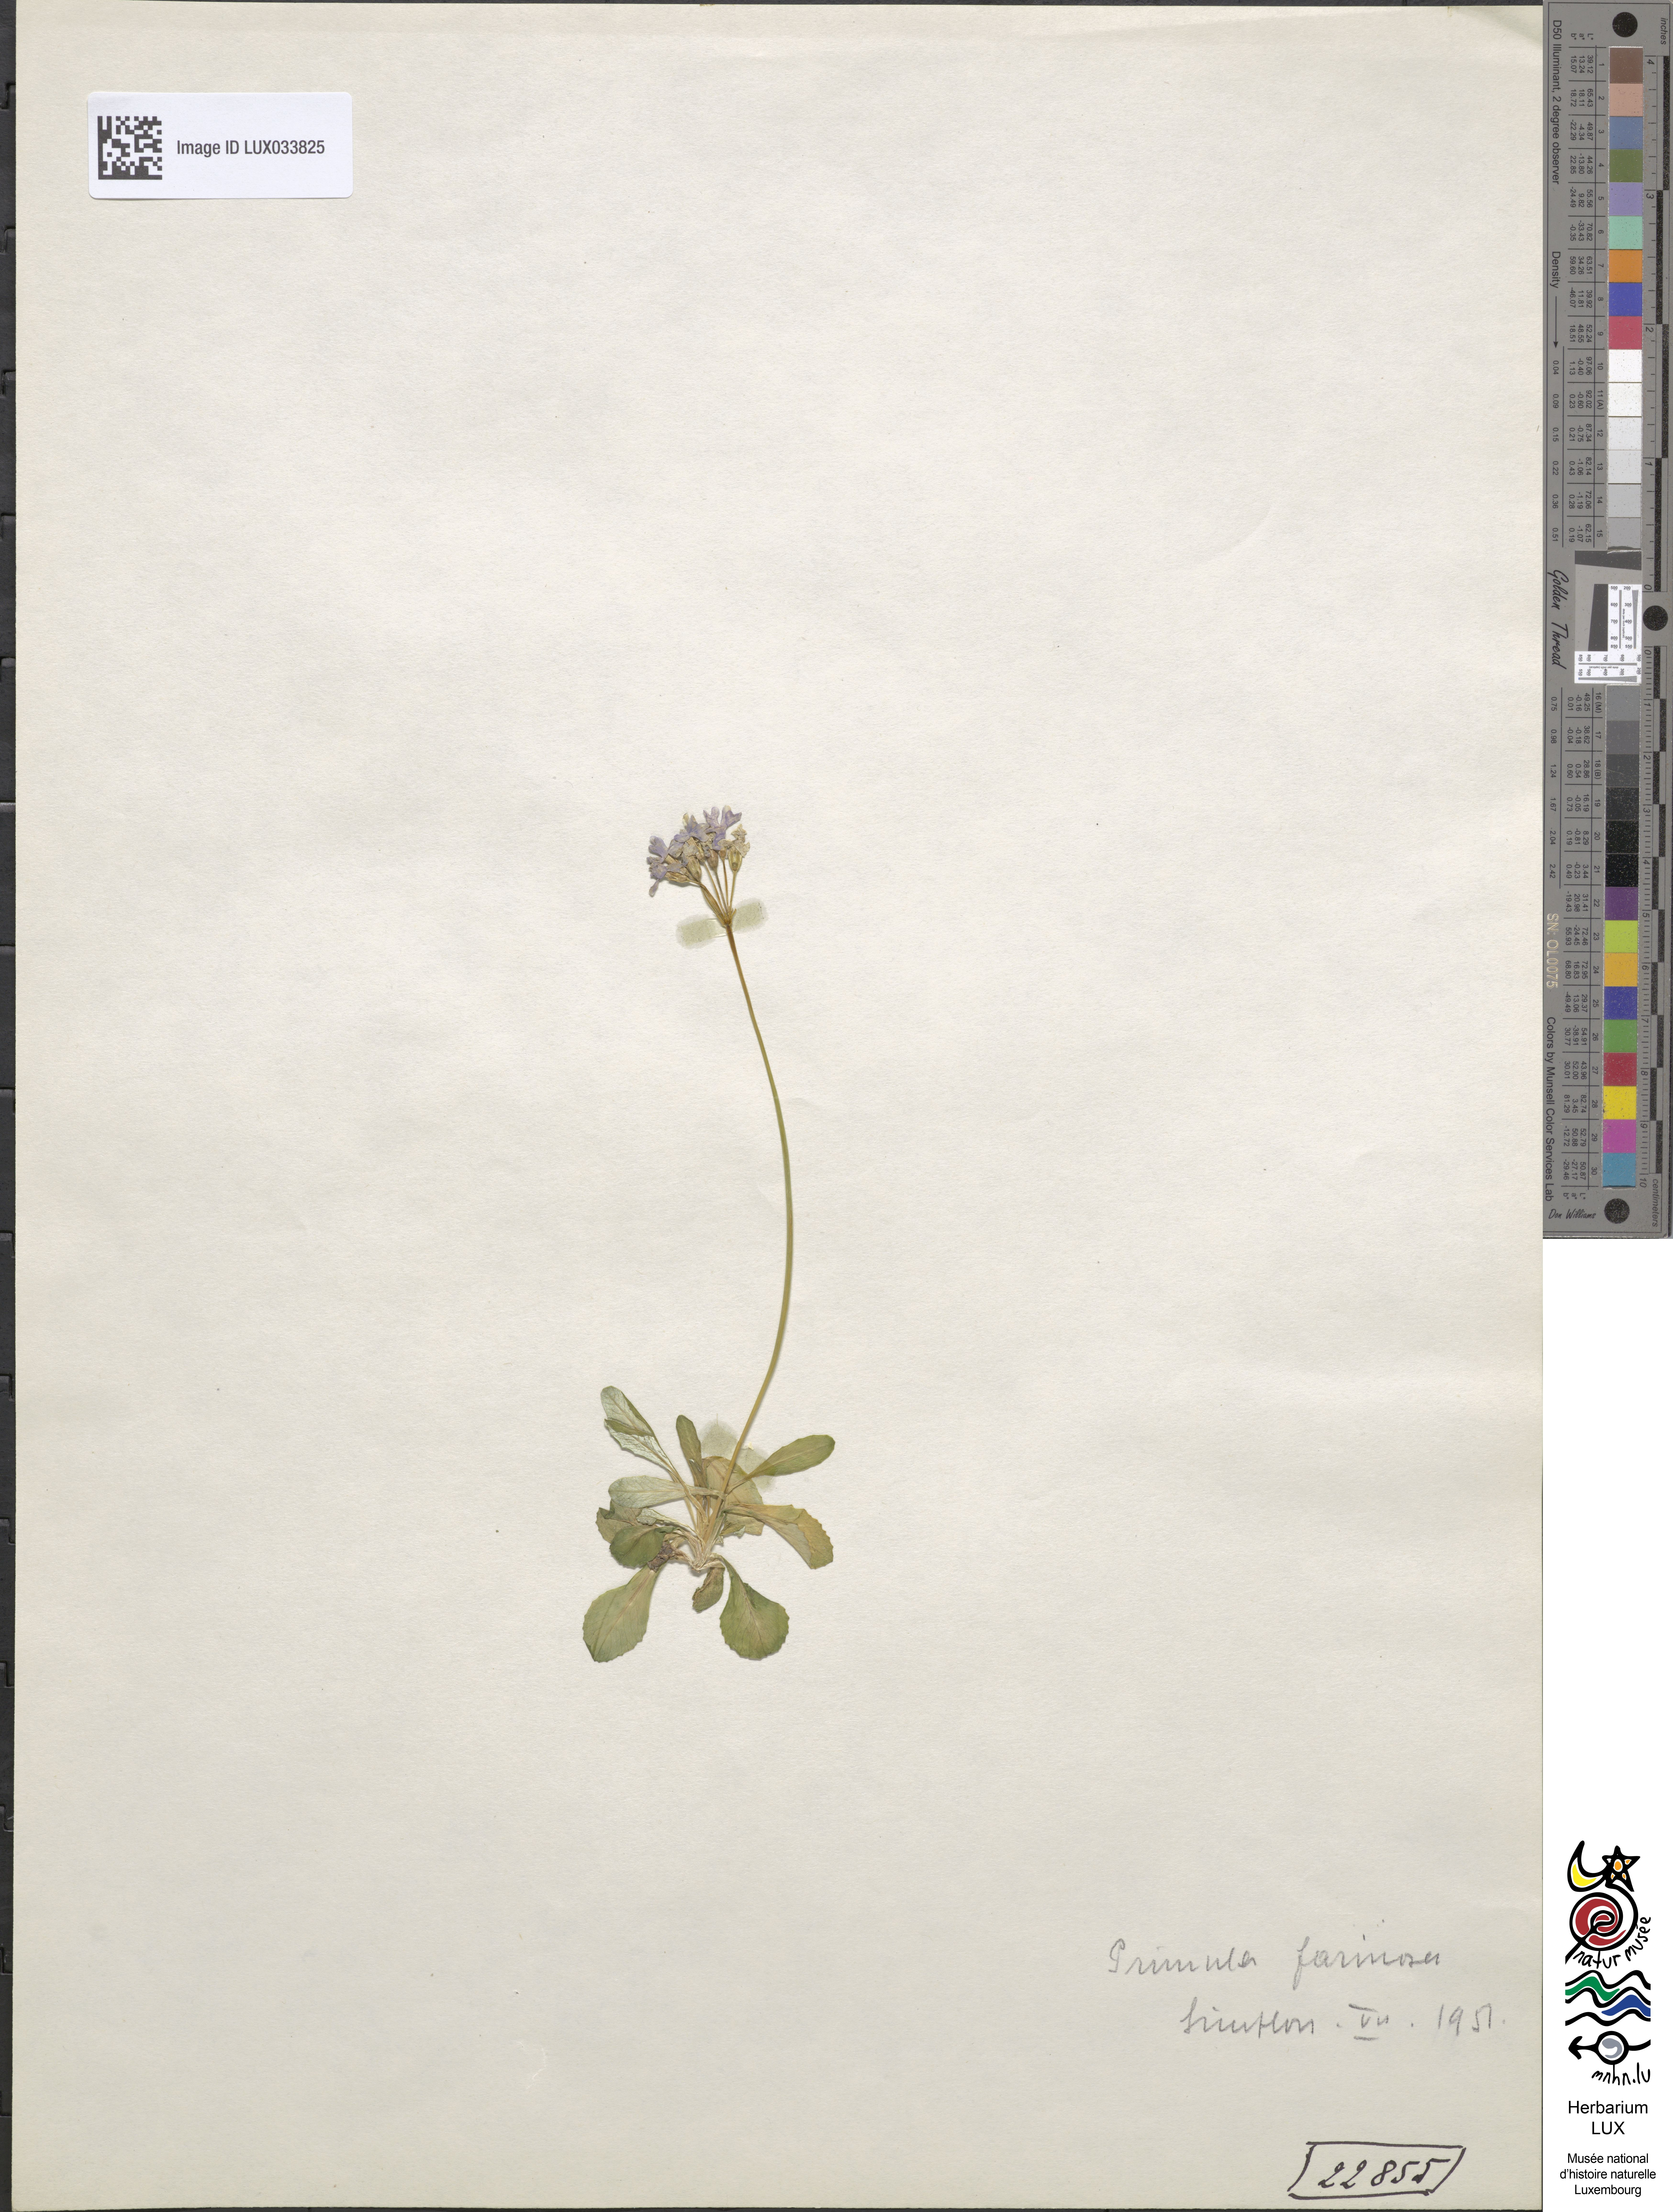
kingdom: Plantae
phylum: Tracheophyta
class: Magnoliopsida
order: Ericales
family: Primulaceae
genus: Primula
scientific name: Primula farinosa
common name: Bird's-eye primrose
